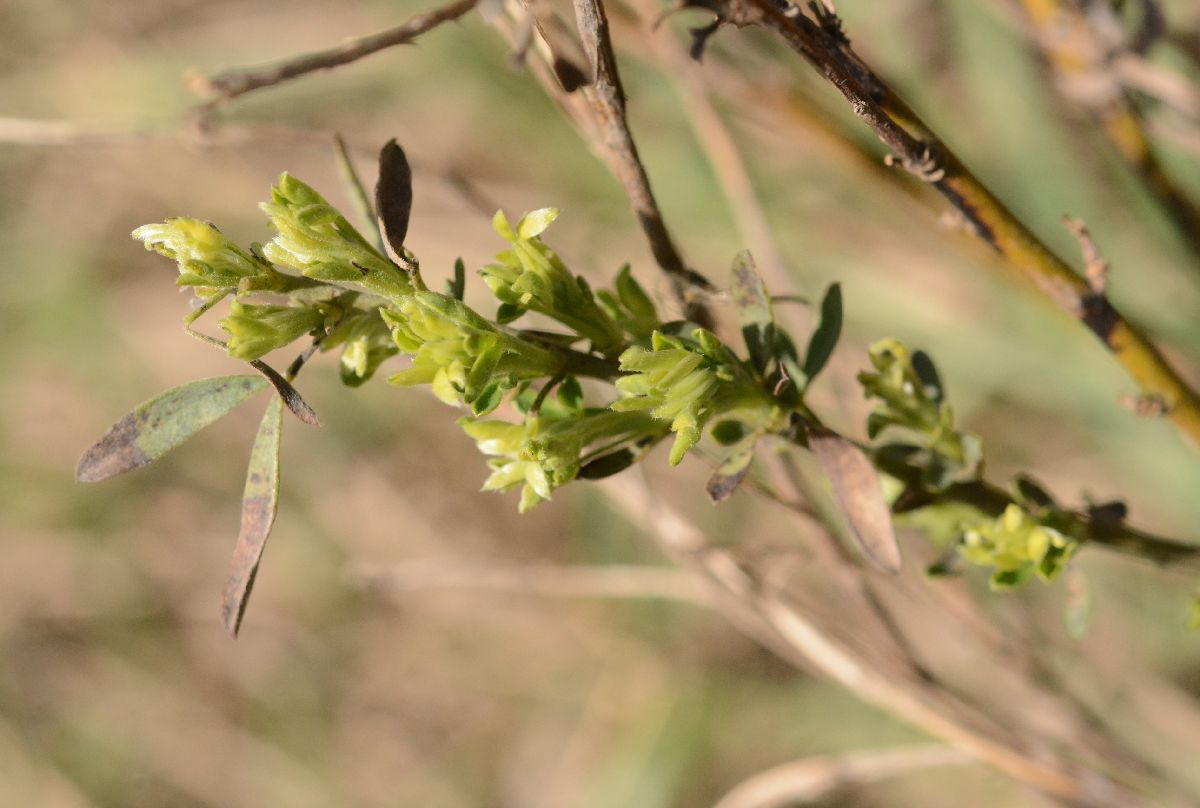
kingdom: Plantae
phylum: Tracheophyta
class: Magnoliopsida
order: Fabales
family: Fabaceae
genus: Chamaecytisus
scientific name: Chamaecytisus austriacus
